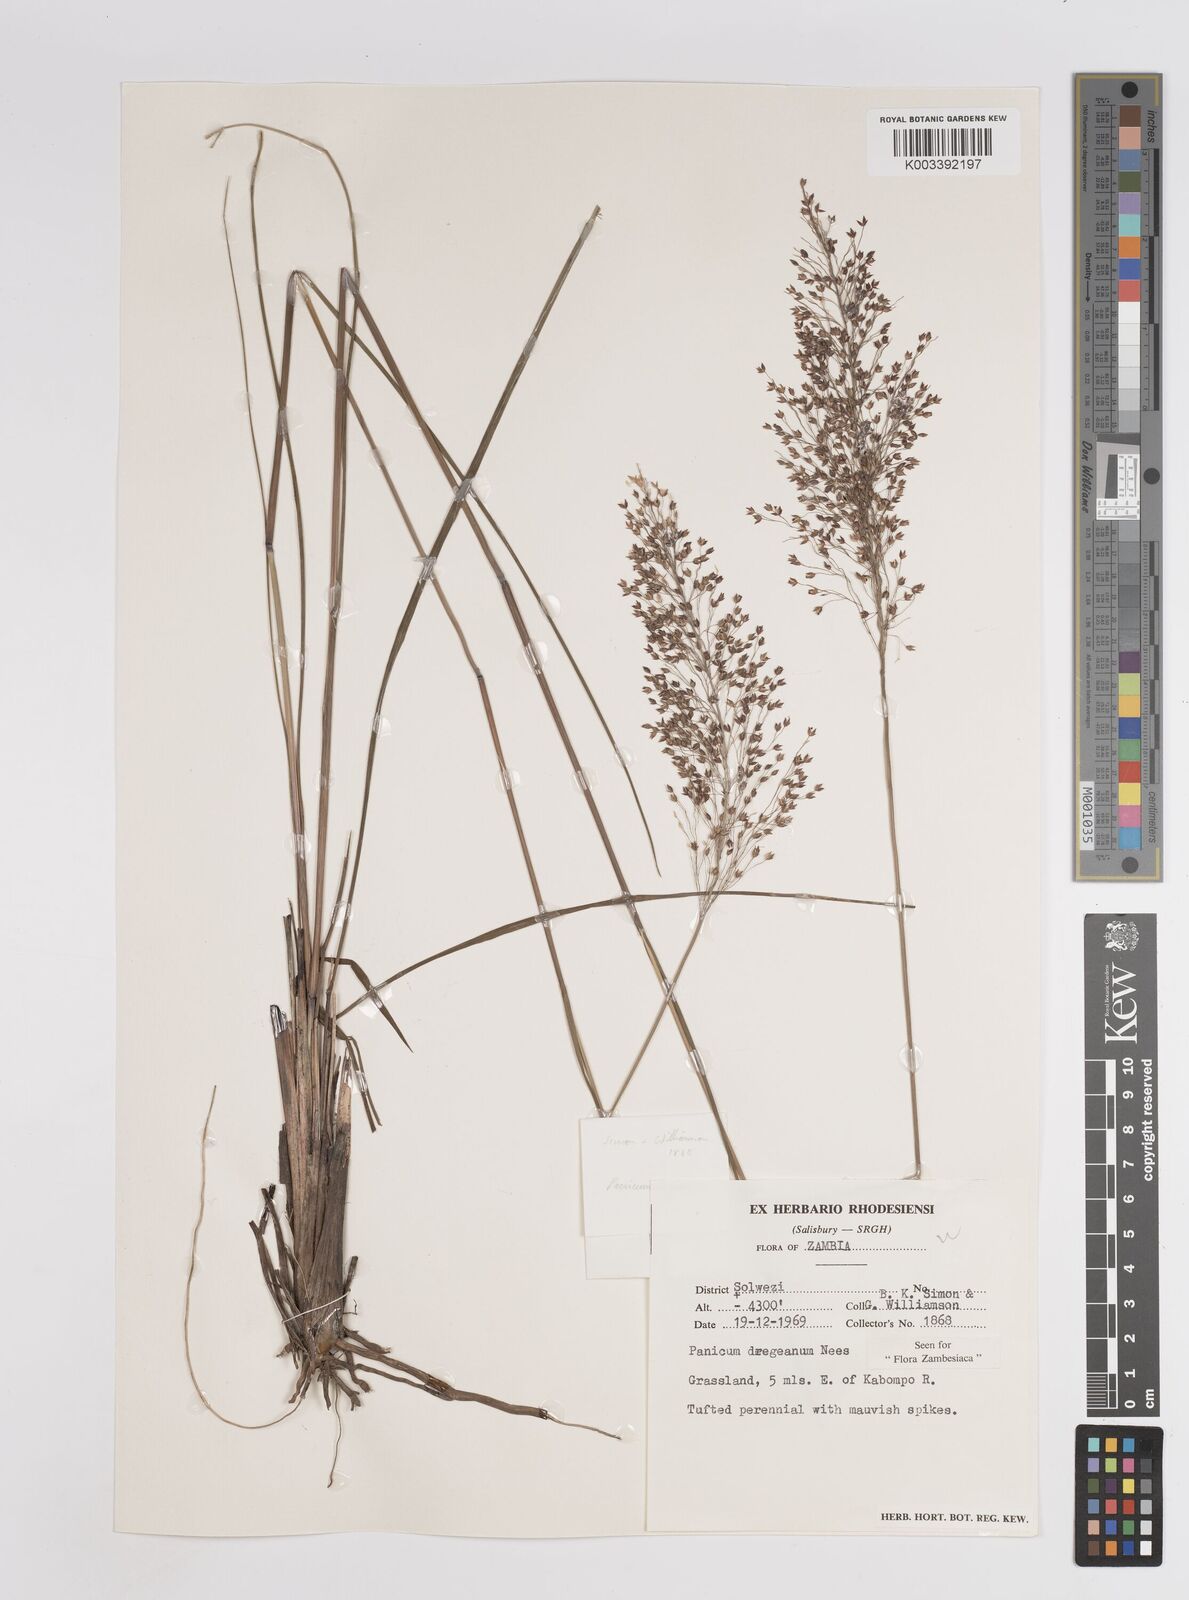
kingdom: Plantae
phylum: Tracheophyta
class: Liliopsida
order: Poales
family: Poaceae
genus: Panicum
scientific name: Panicum dregeanum
